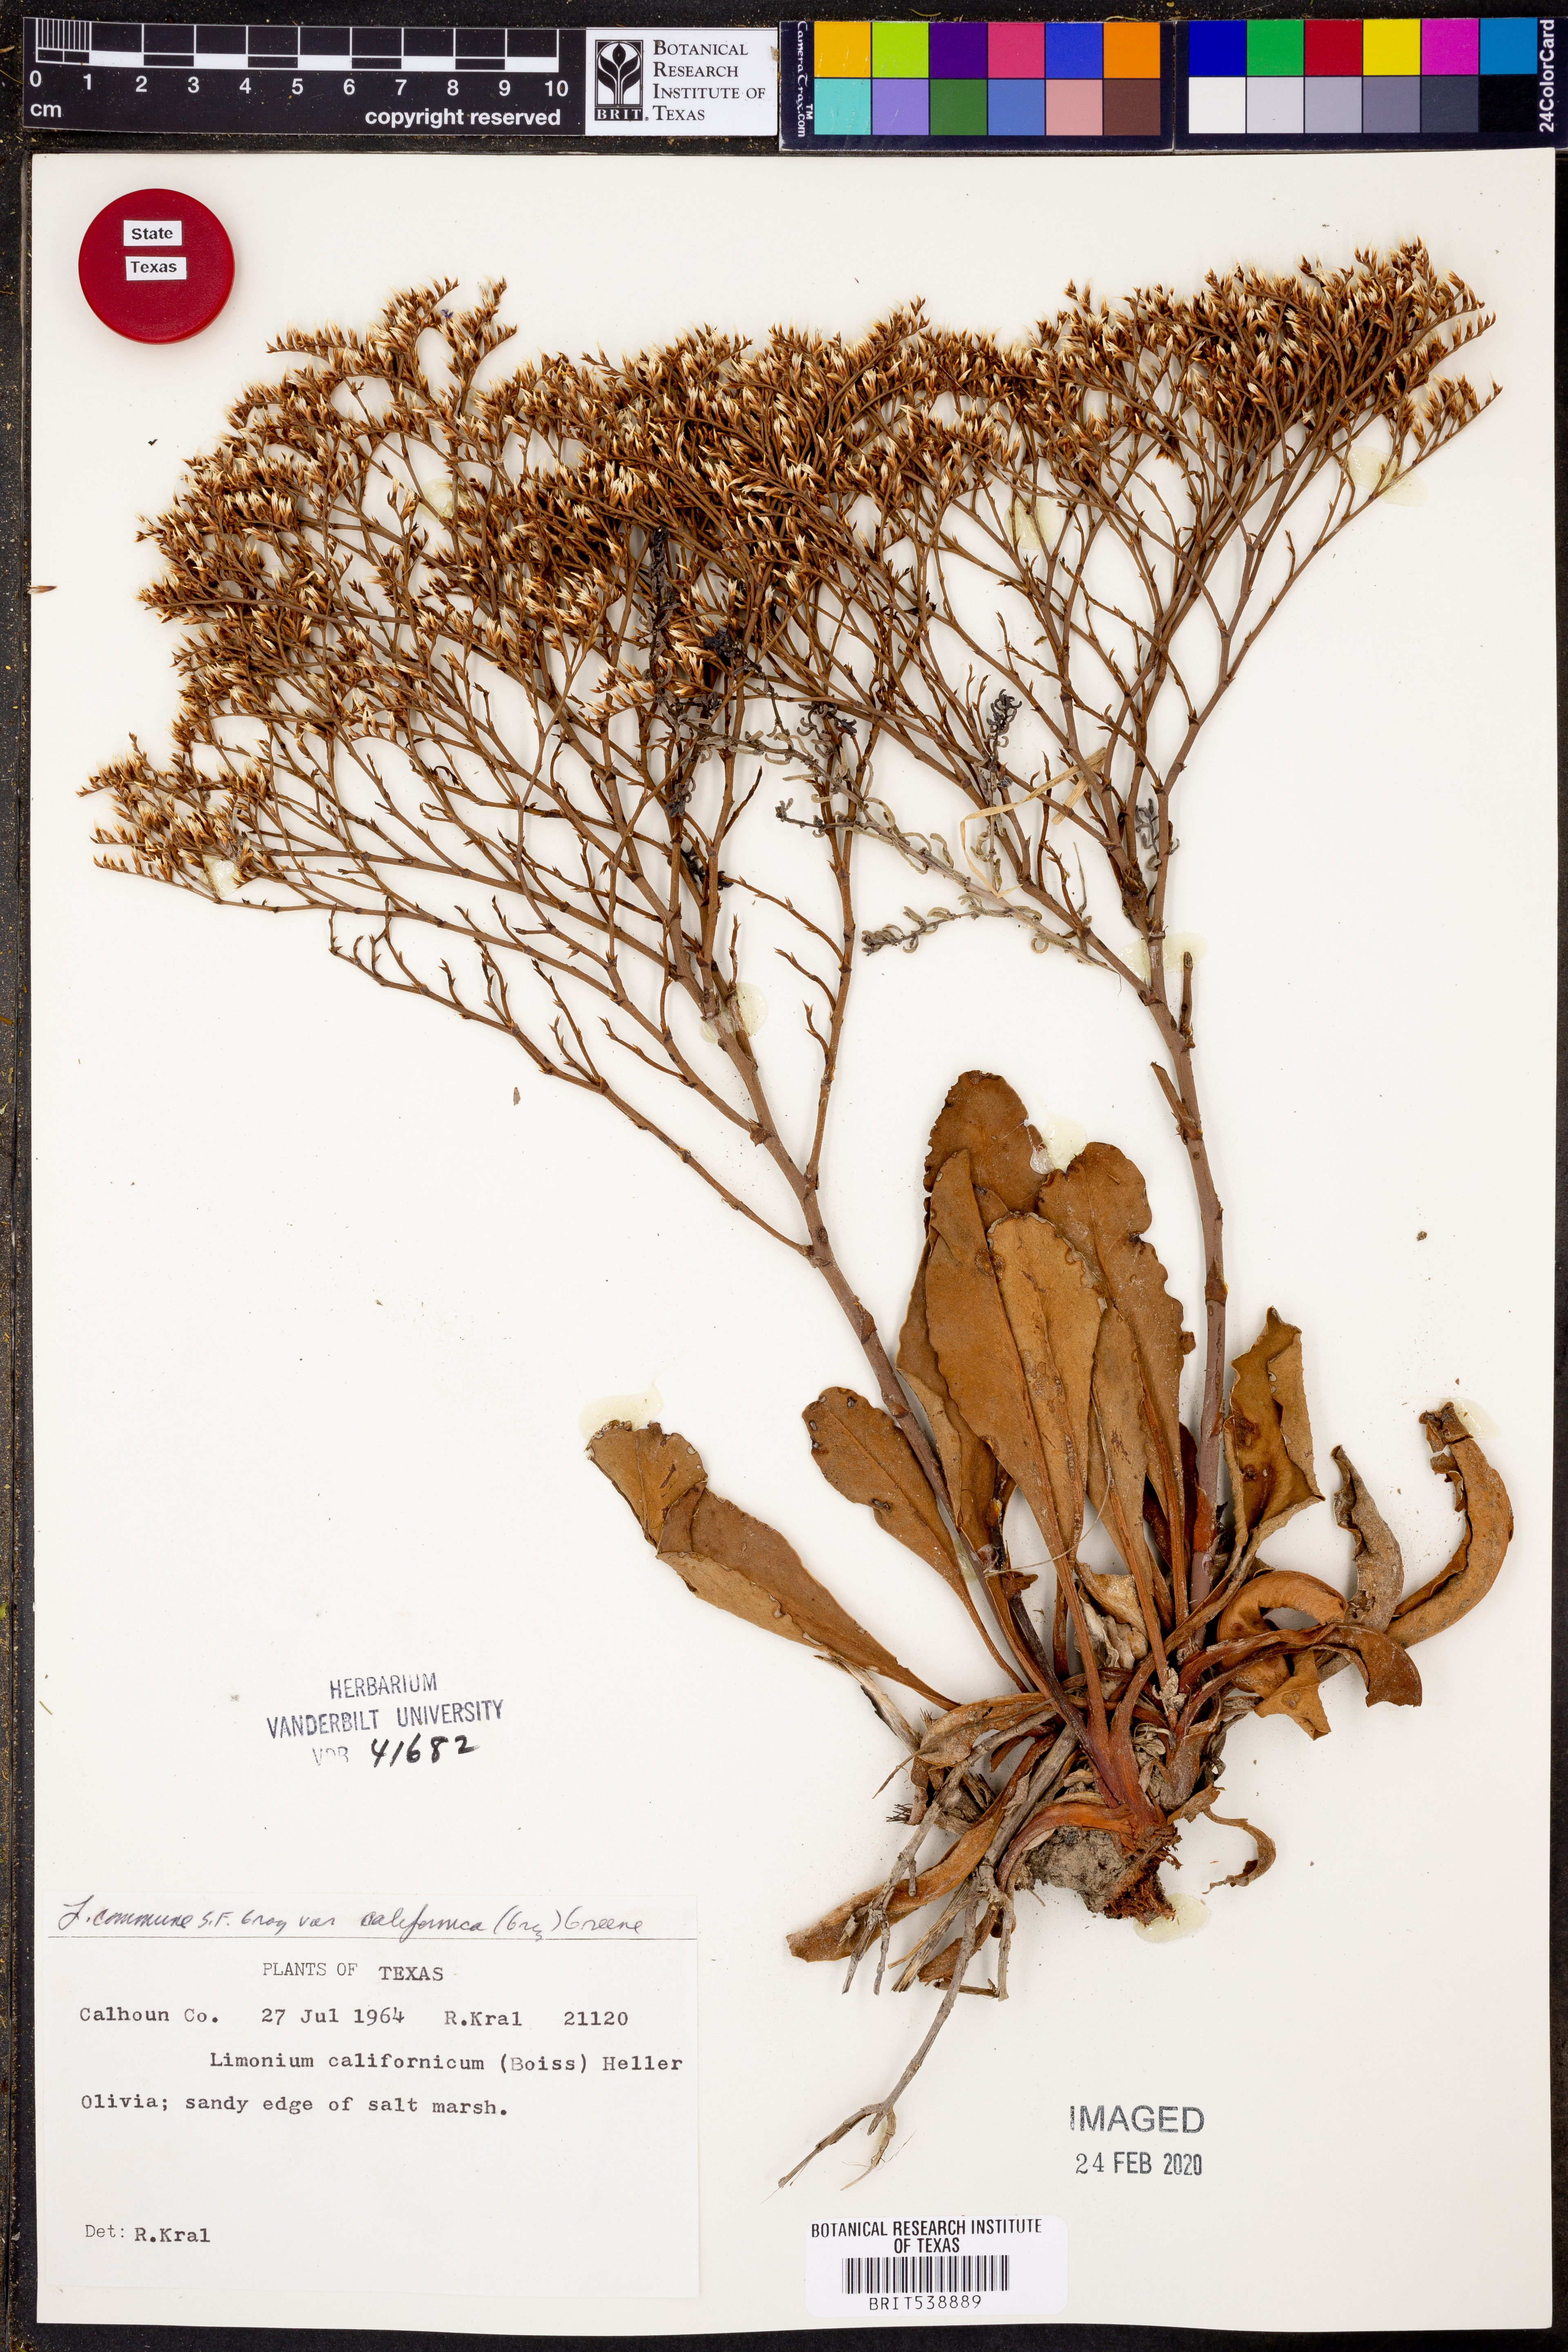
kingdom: Plantae
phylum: Tracheophyta
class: Magnoliopsida
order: Caryophyllales
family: Plumbaginaceae
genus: Limonium
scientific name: Limonium californicum
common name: Marsh-rosemary
